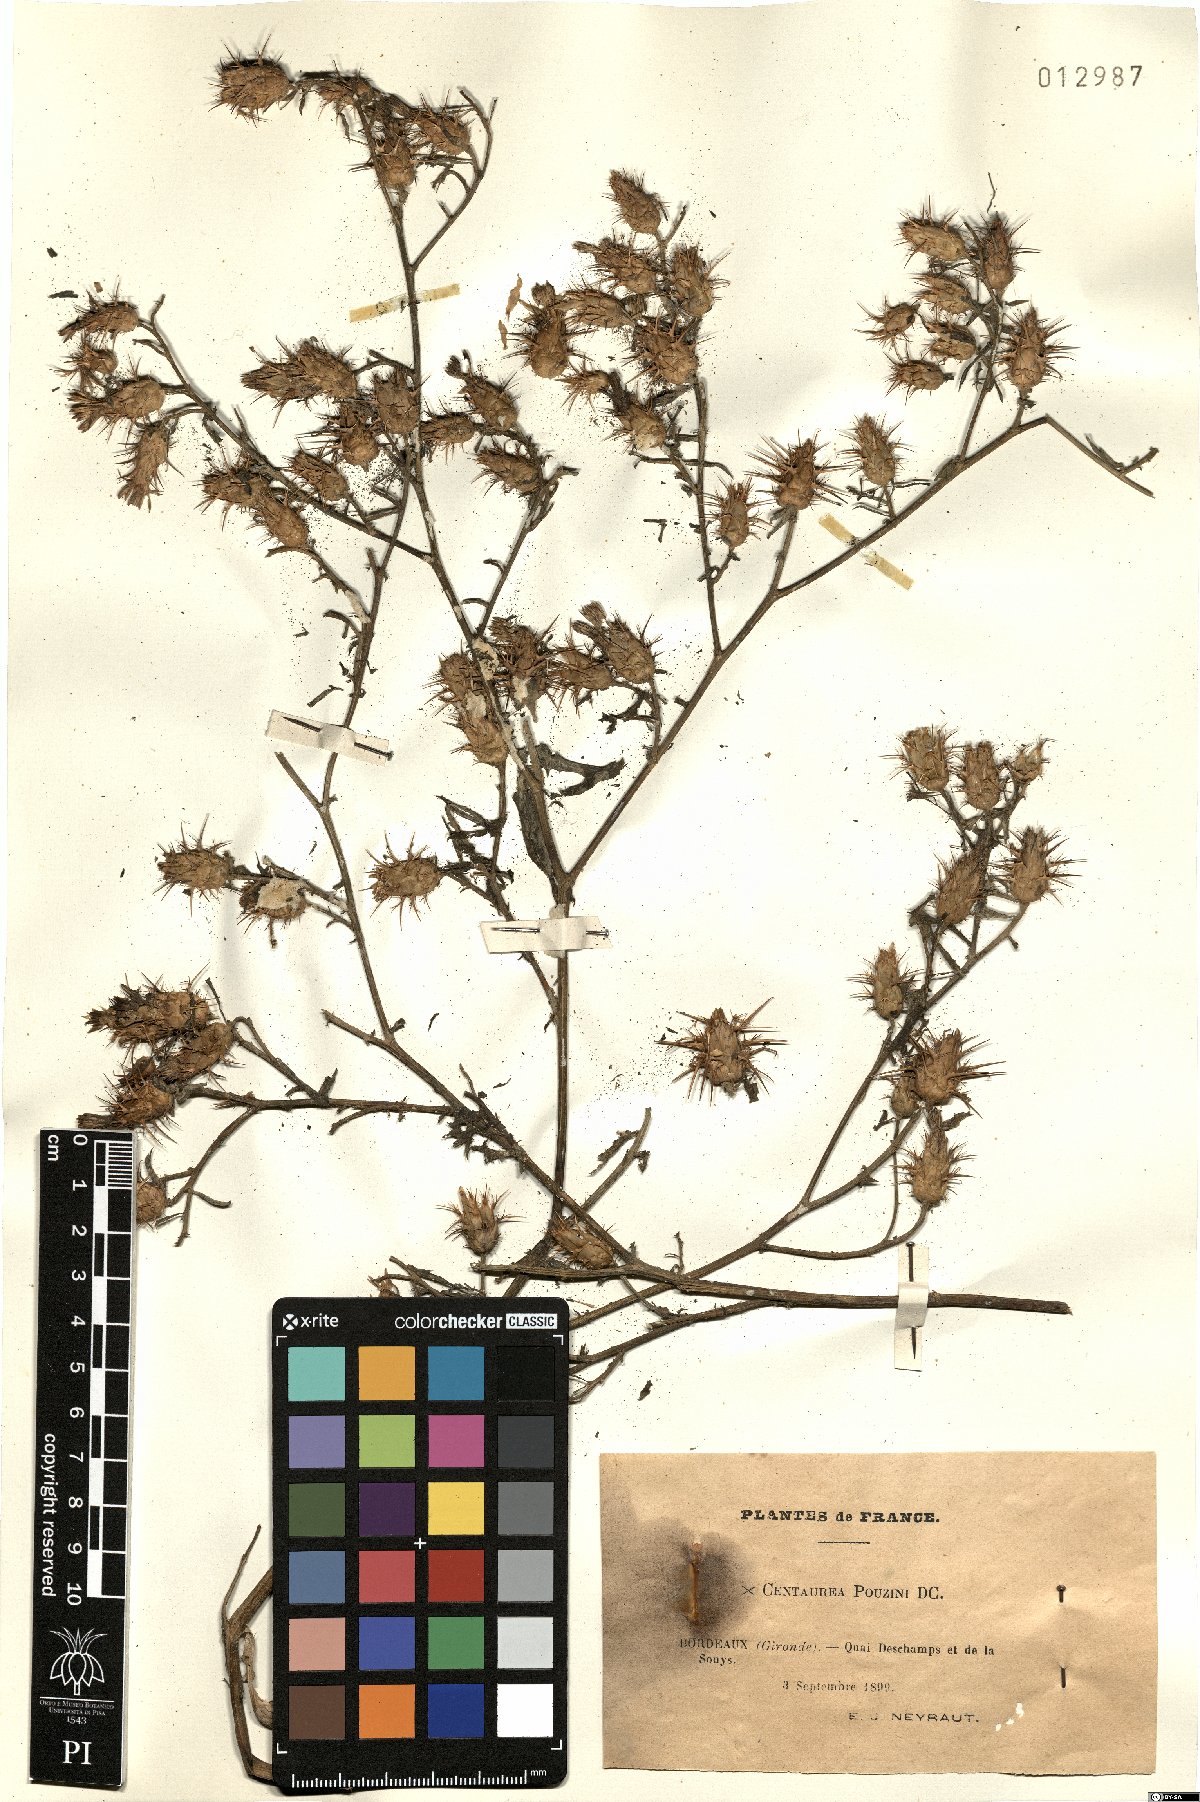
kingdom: Plantae
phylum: Tracheophyta
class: Magnoliopsida
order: Asterales
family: Asteraceae
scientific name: Asteraceae
